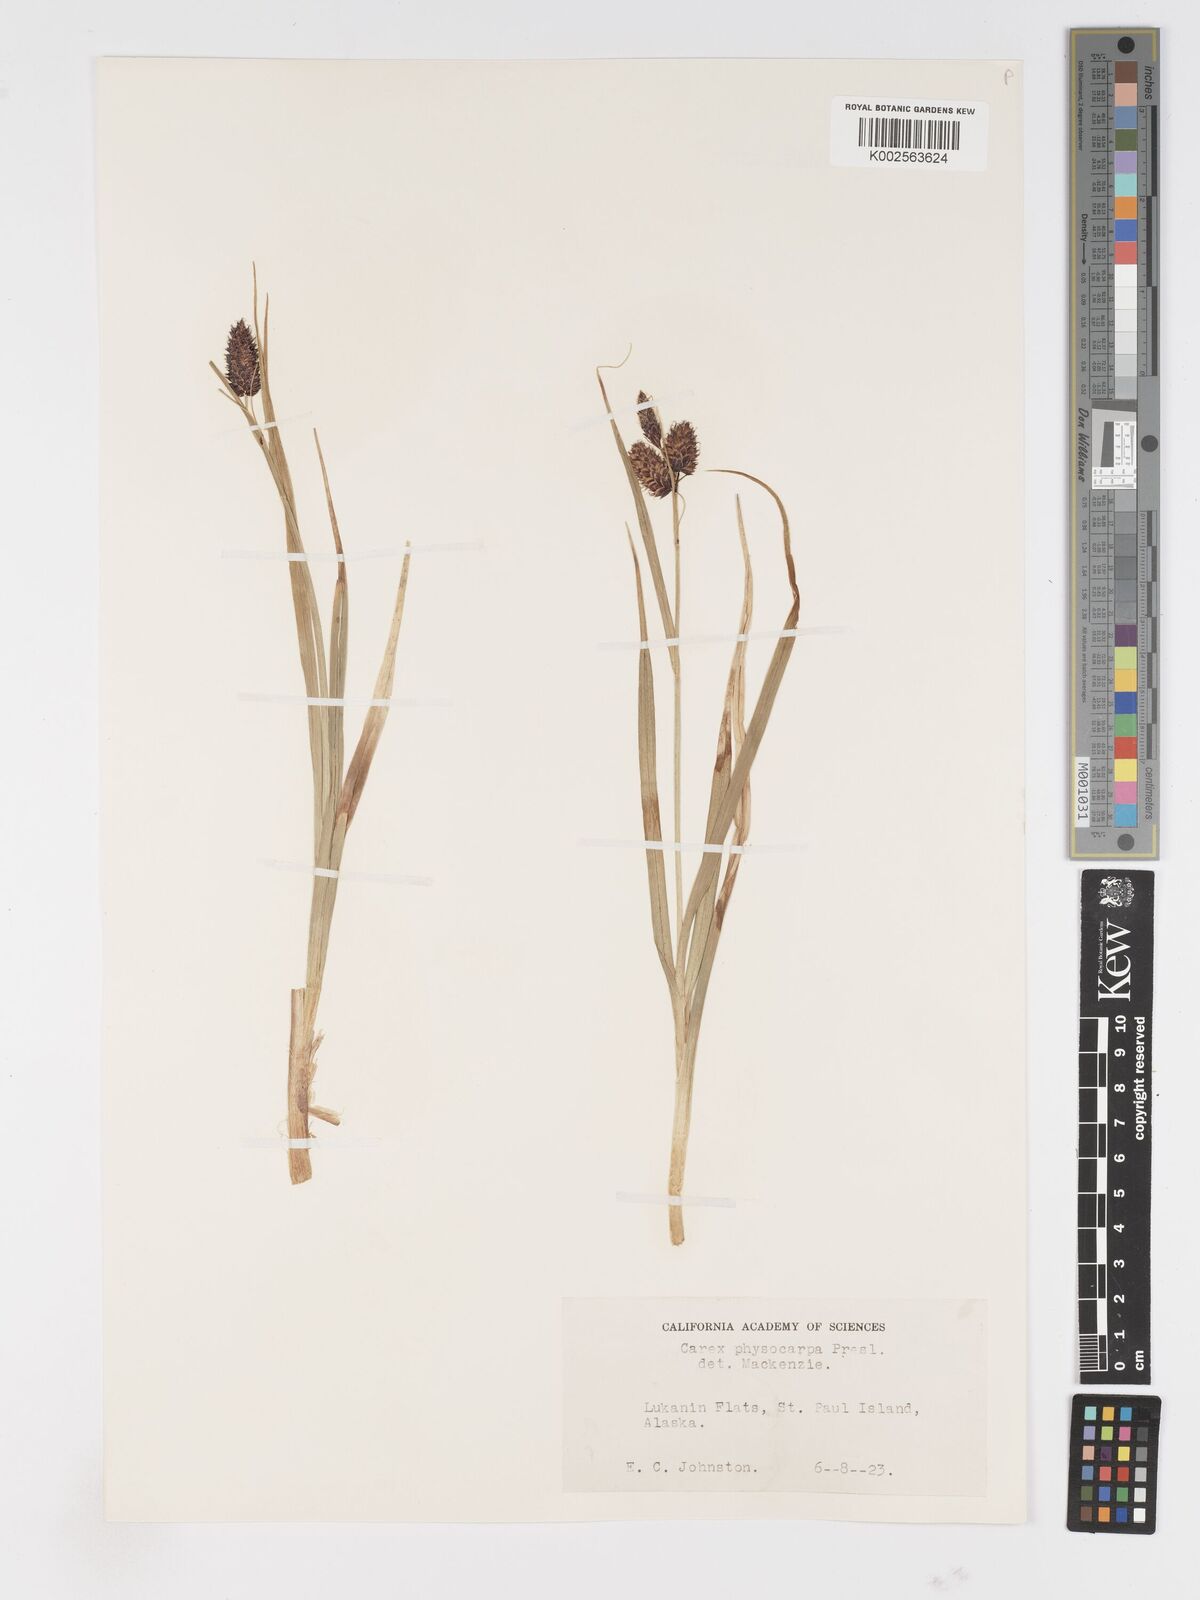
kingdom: Plantae
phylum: Tracheophyta
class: Liliopsida
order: Poales
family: Cyperaceae
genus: Carex
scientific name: Carex saxatilis
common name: Russet sedge
